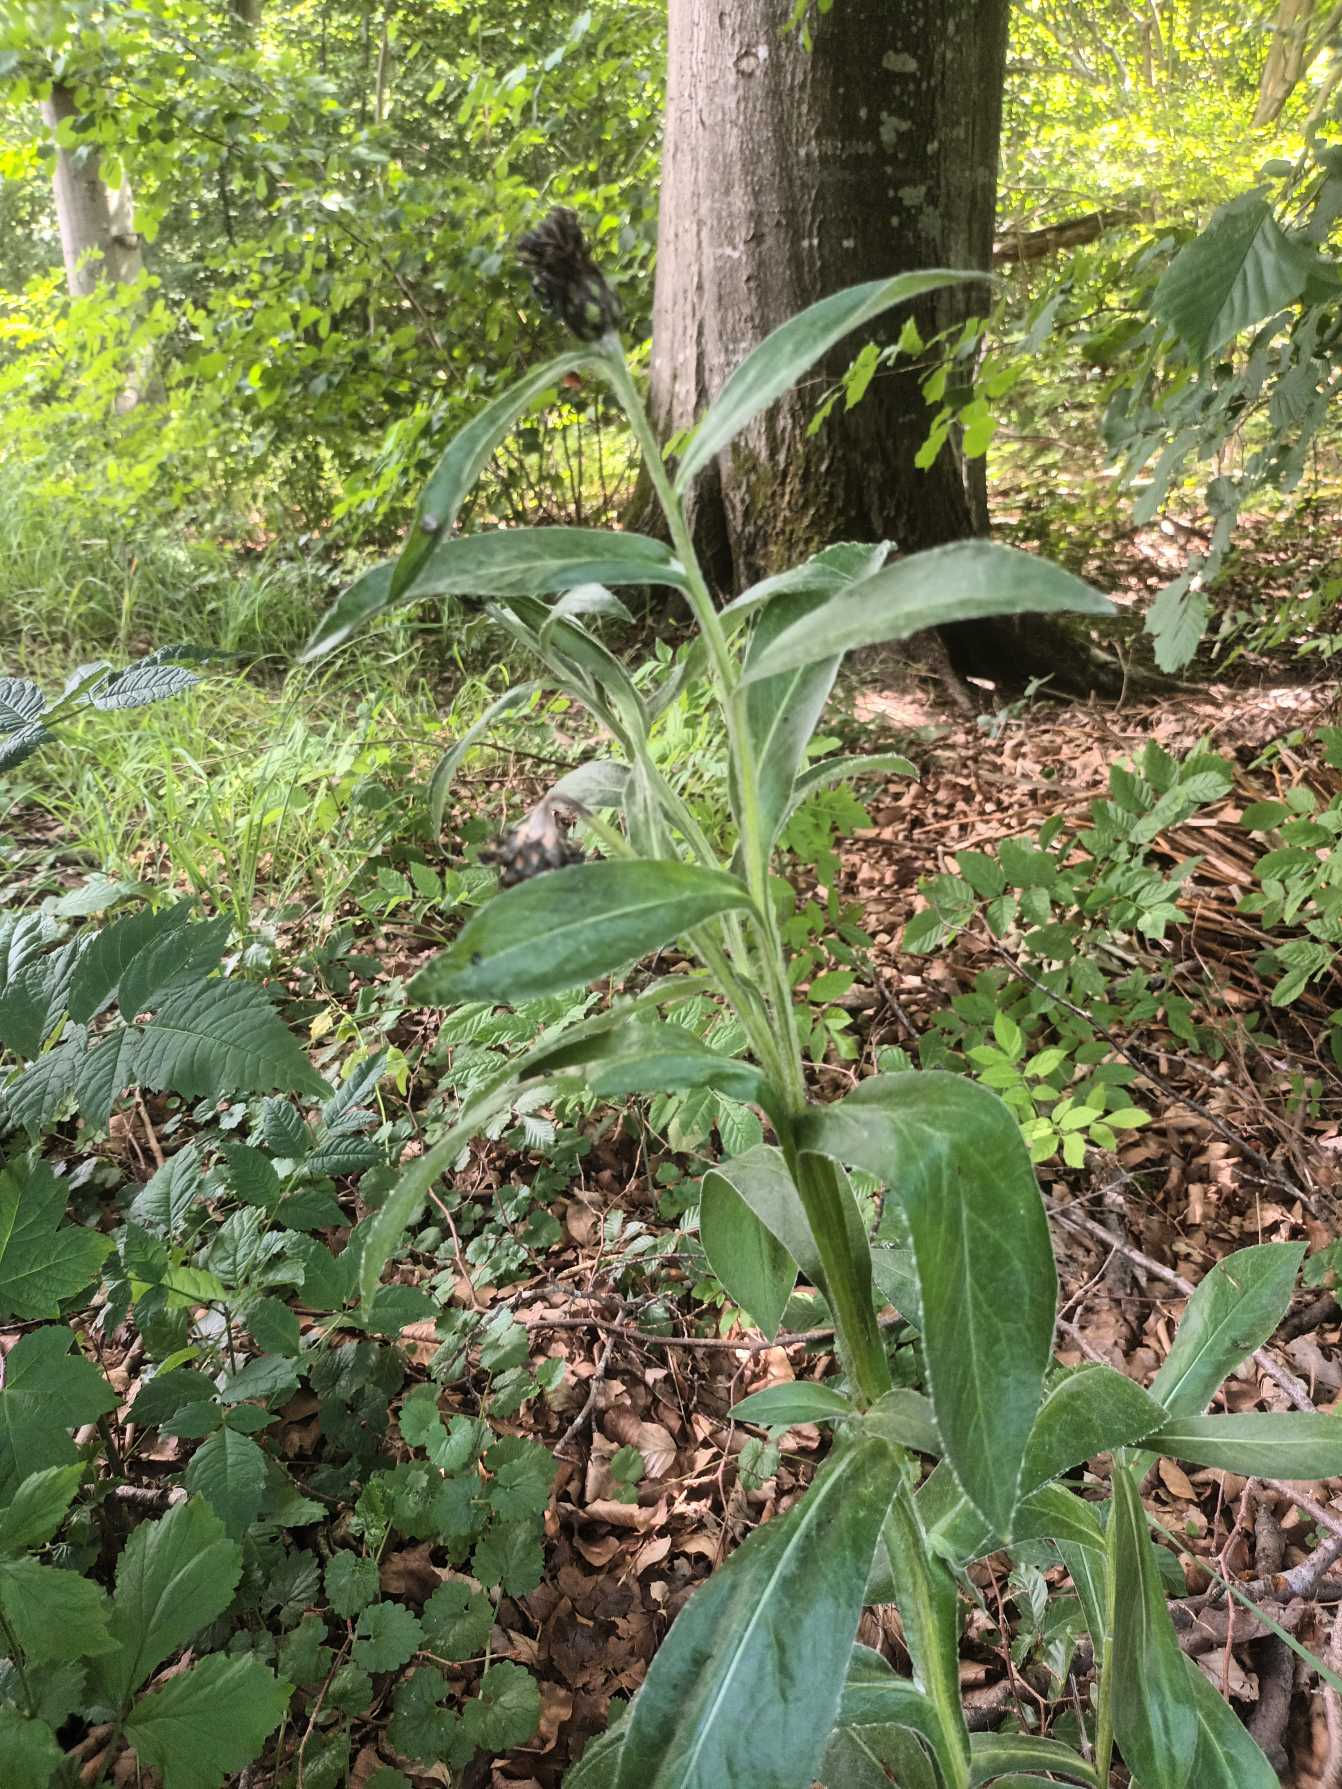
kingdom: Plantae
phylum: Tracheophyta
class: Magnoliopsida
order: Asterales
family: Asteraceae
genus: Centaurea
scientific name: Centaurea montana
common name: Bjerg-knopurt
